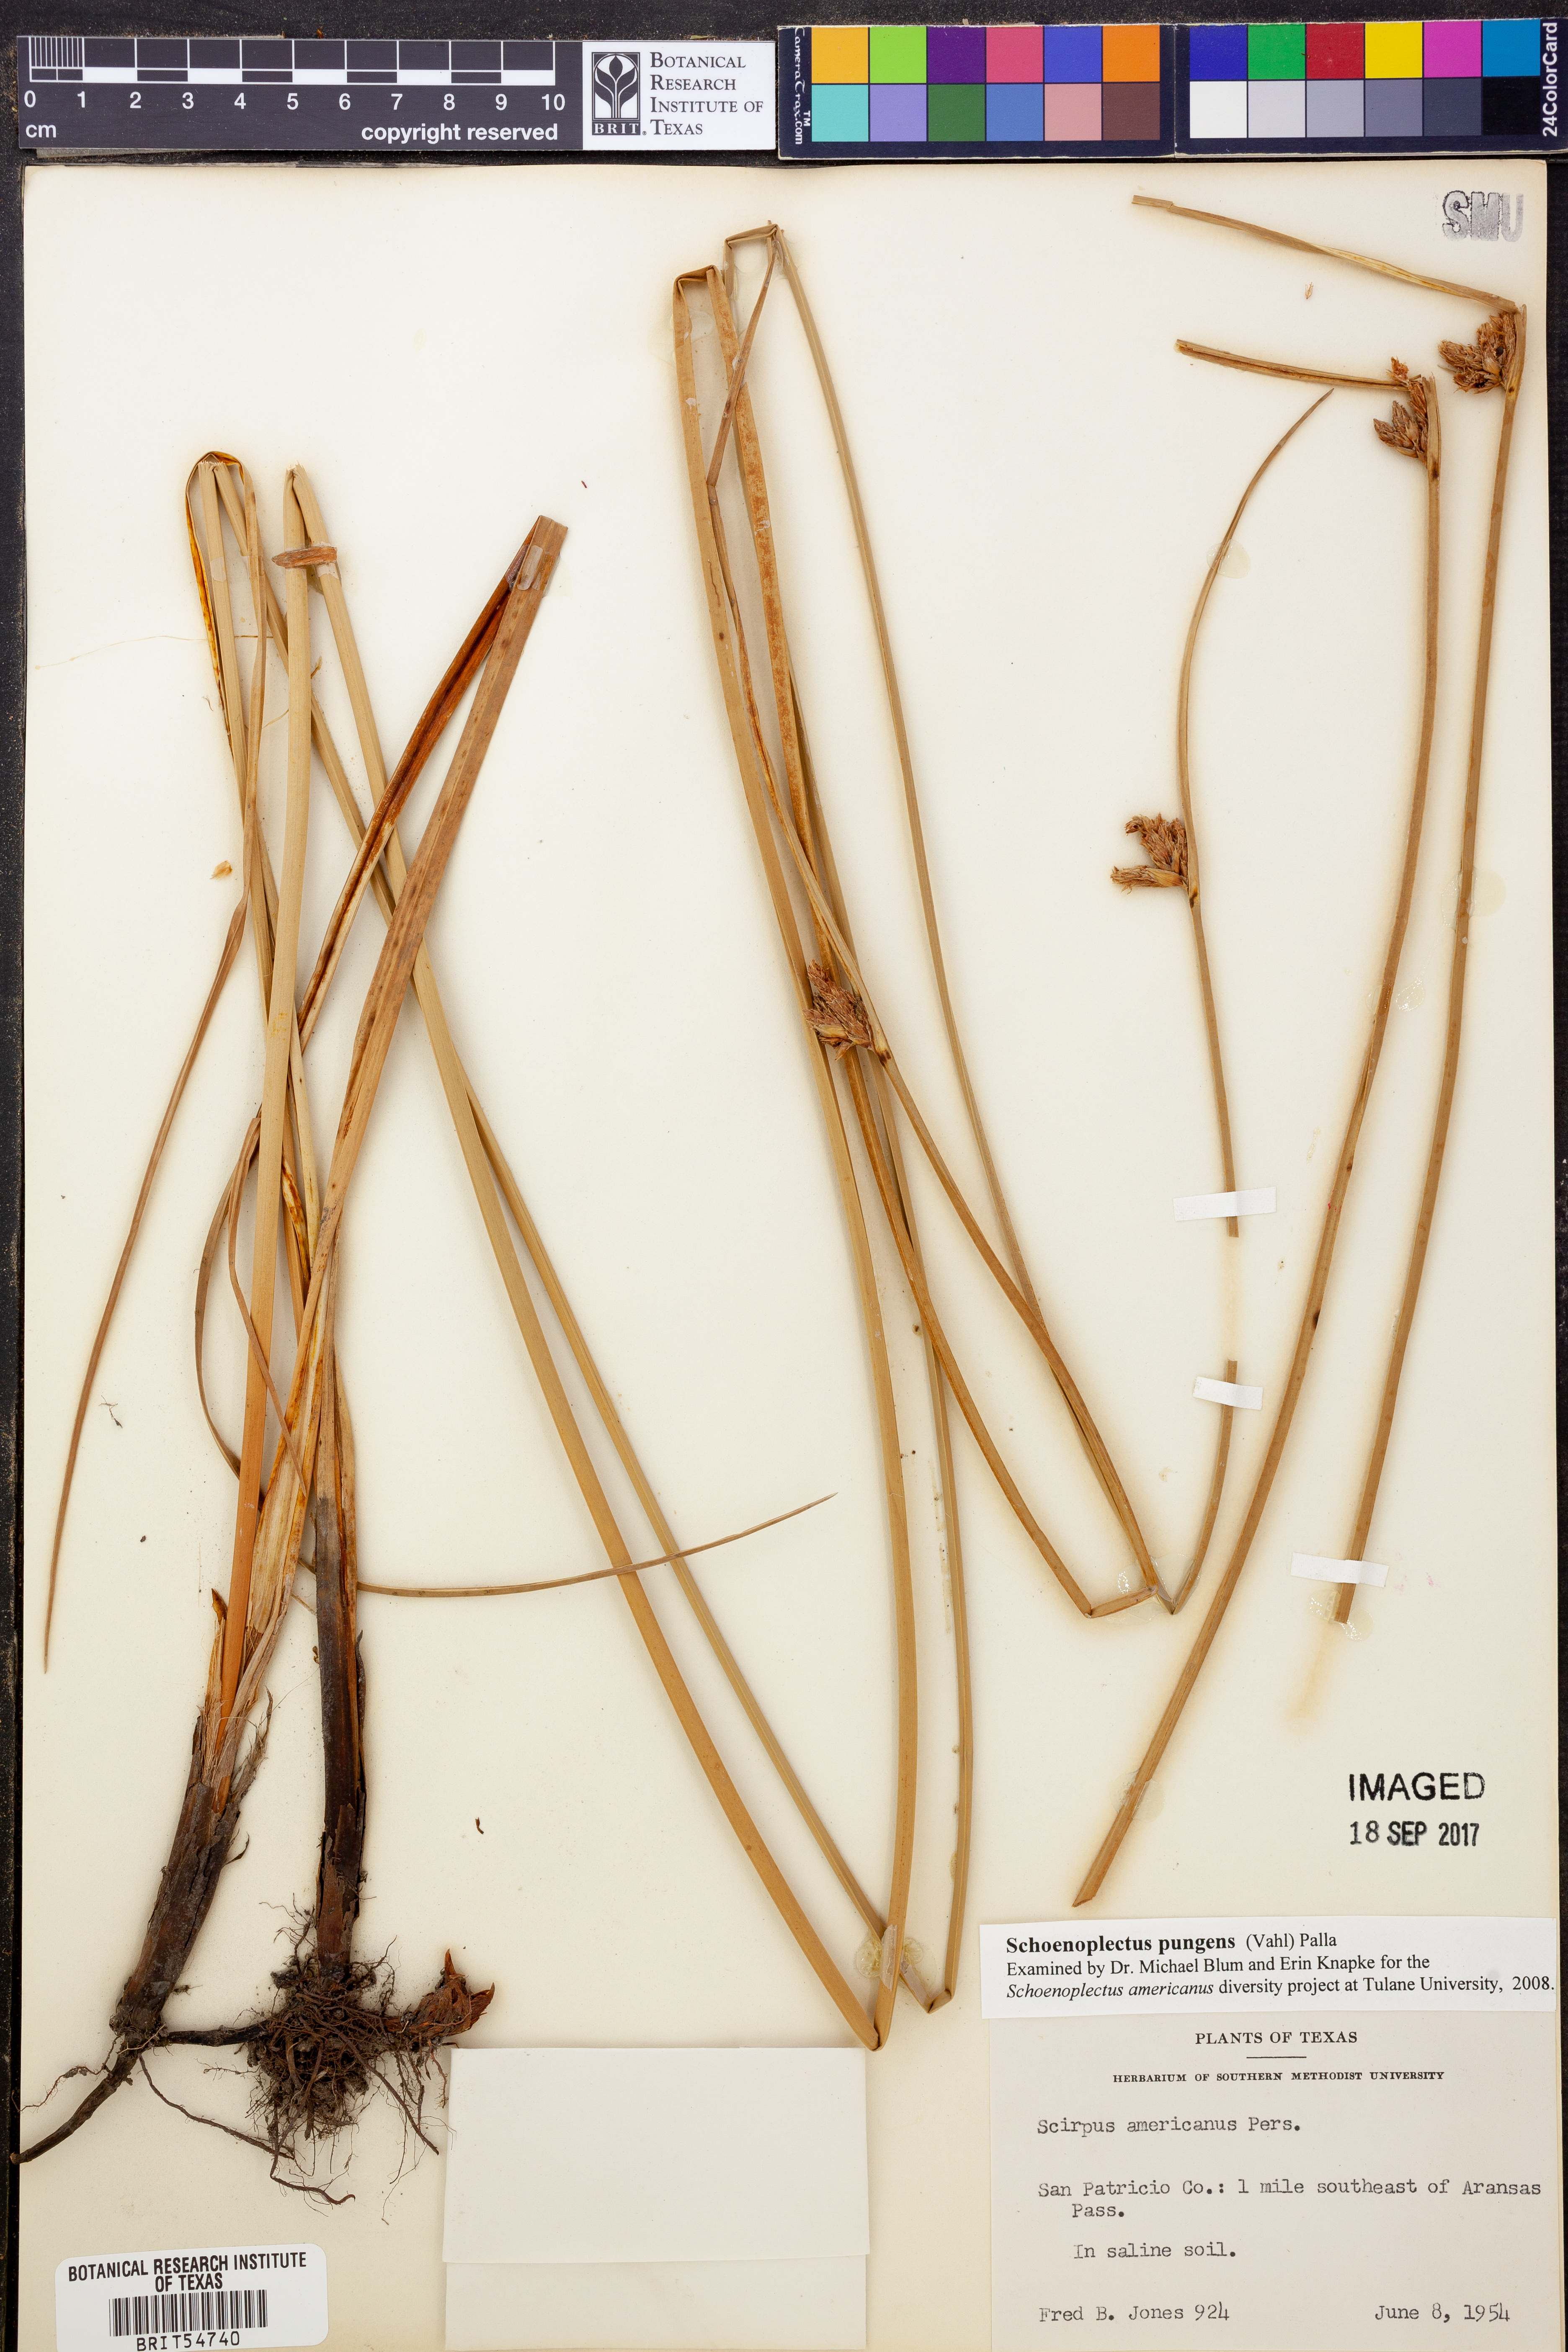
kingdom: Plantae
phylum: Tracheophyta
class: Liliopsida
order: Poales
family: Cyperaceae
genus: Schoenoplectus
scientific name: Schoenoplectus pungens
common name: Sharp club-rush
